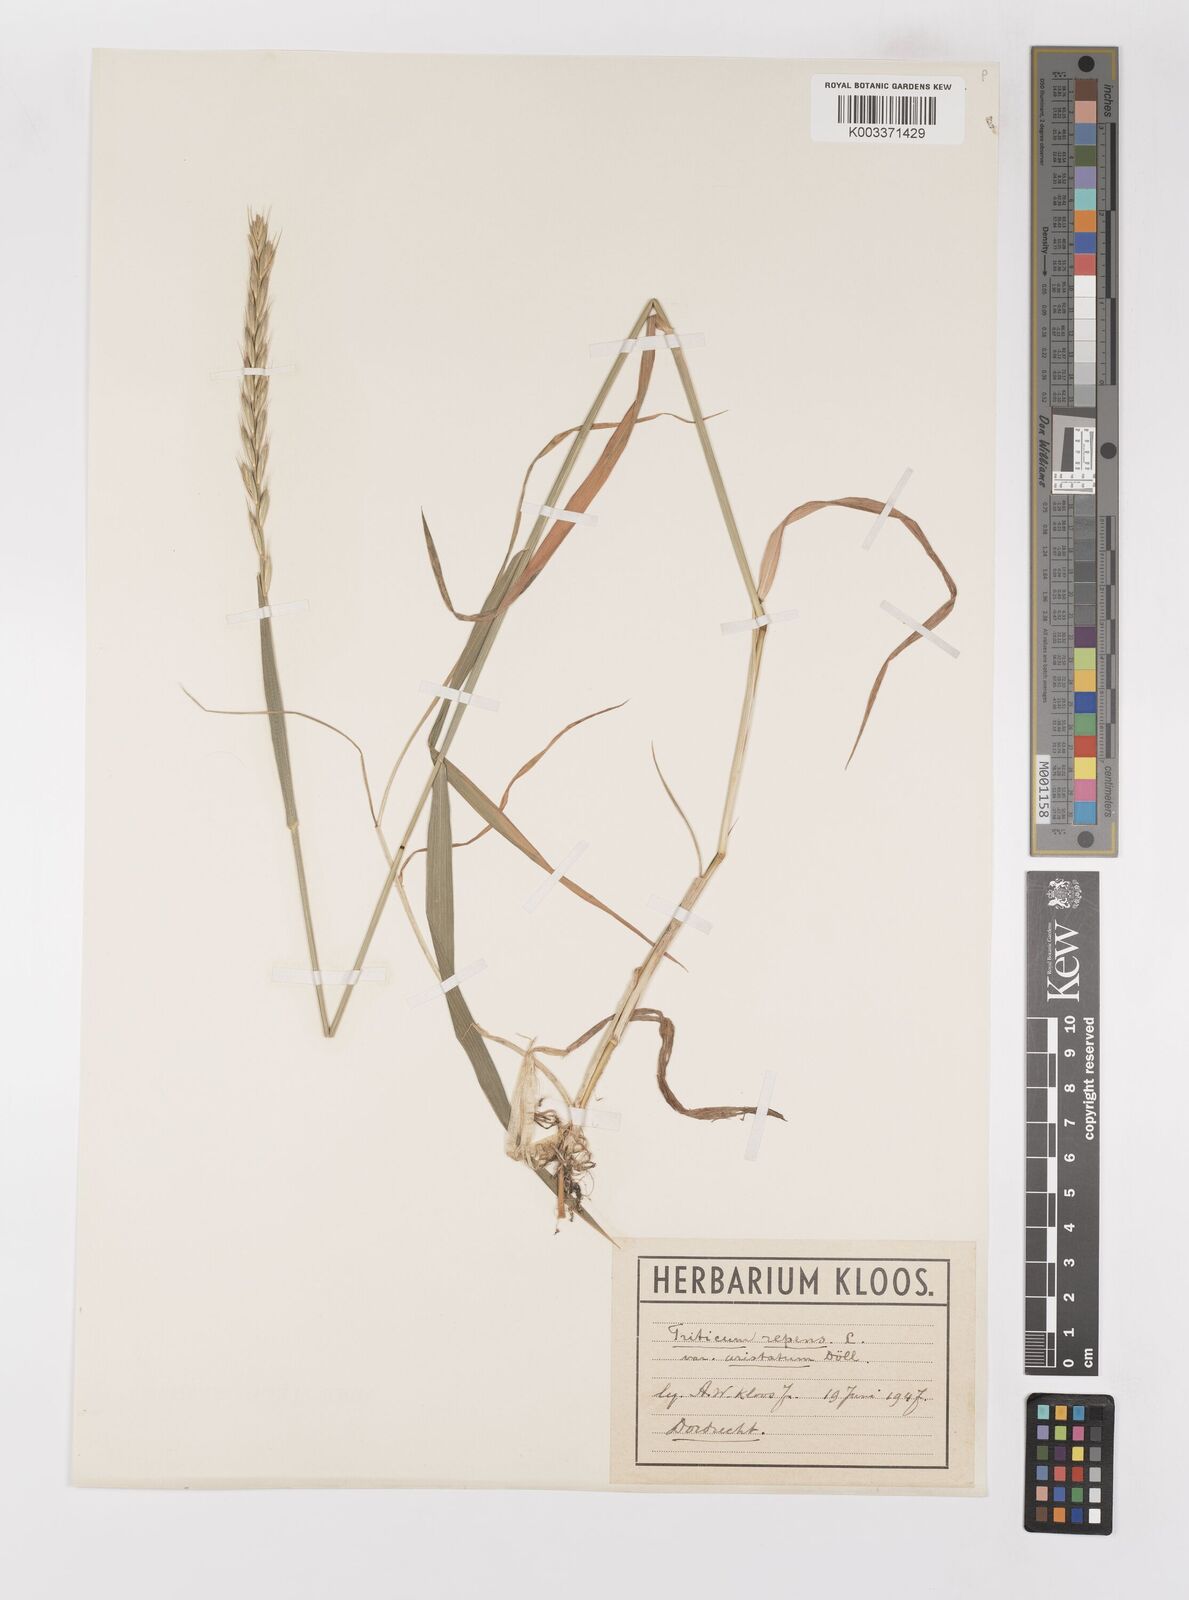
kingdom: Plantae
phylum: Tracheophyta
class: Liliopsida
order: Poales
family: Poaceae
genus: Elymus
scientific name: Elymus repens
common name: Quackgrass
